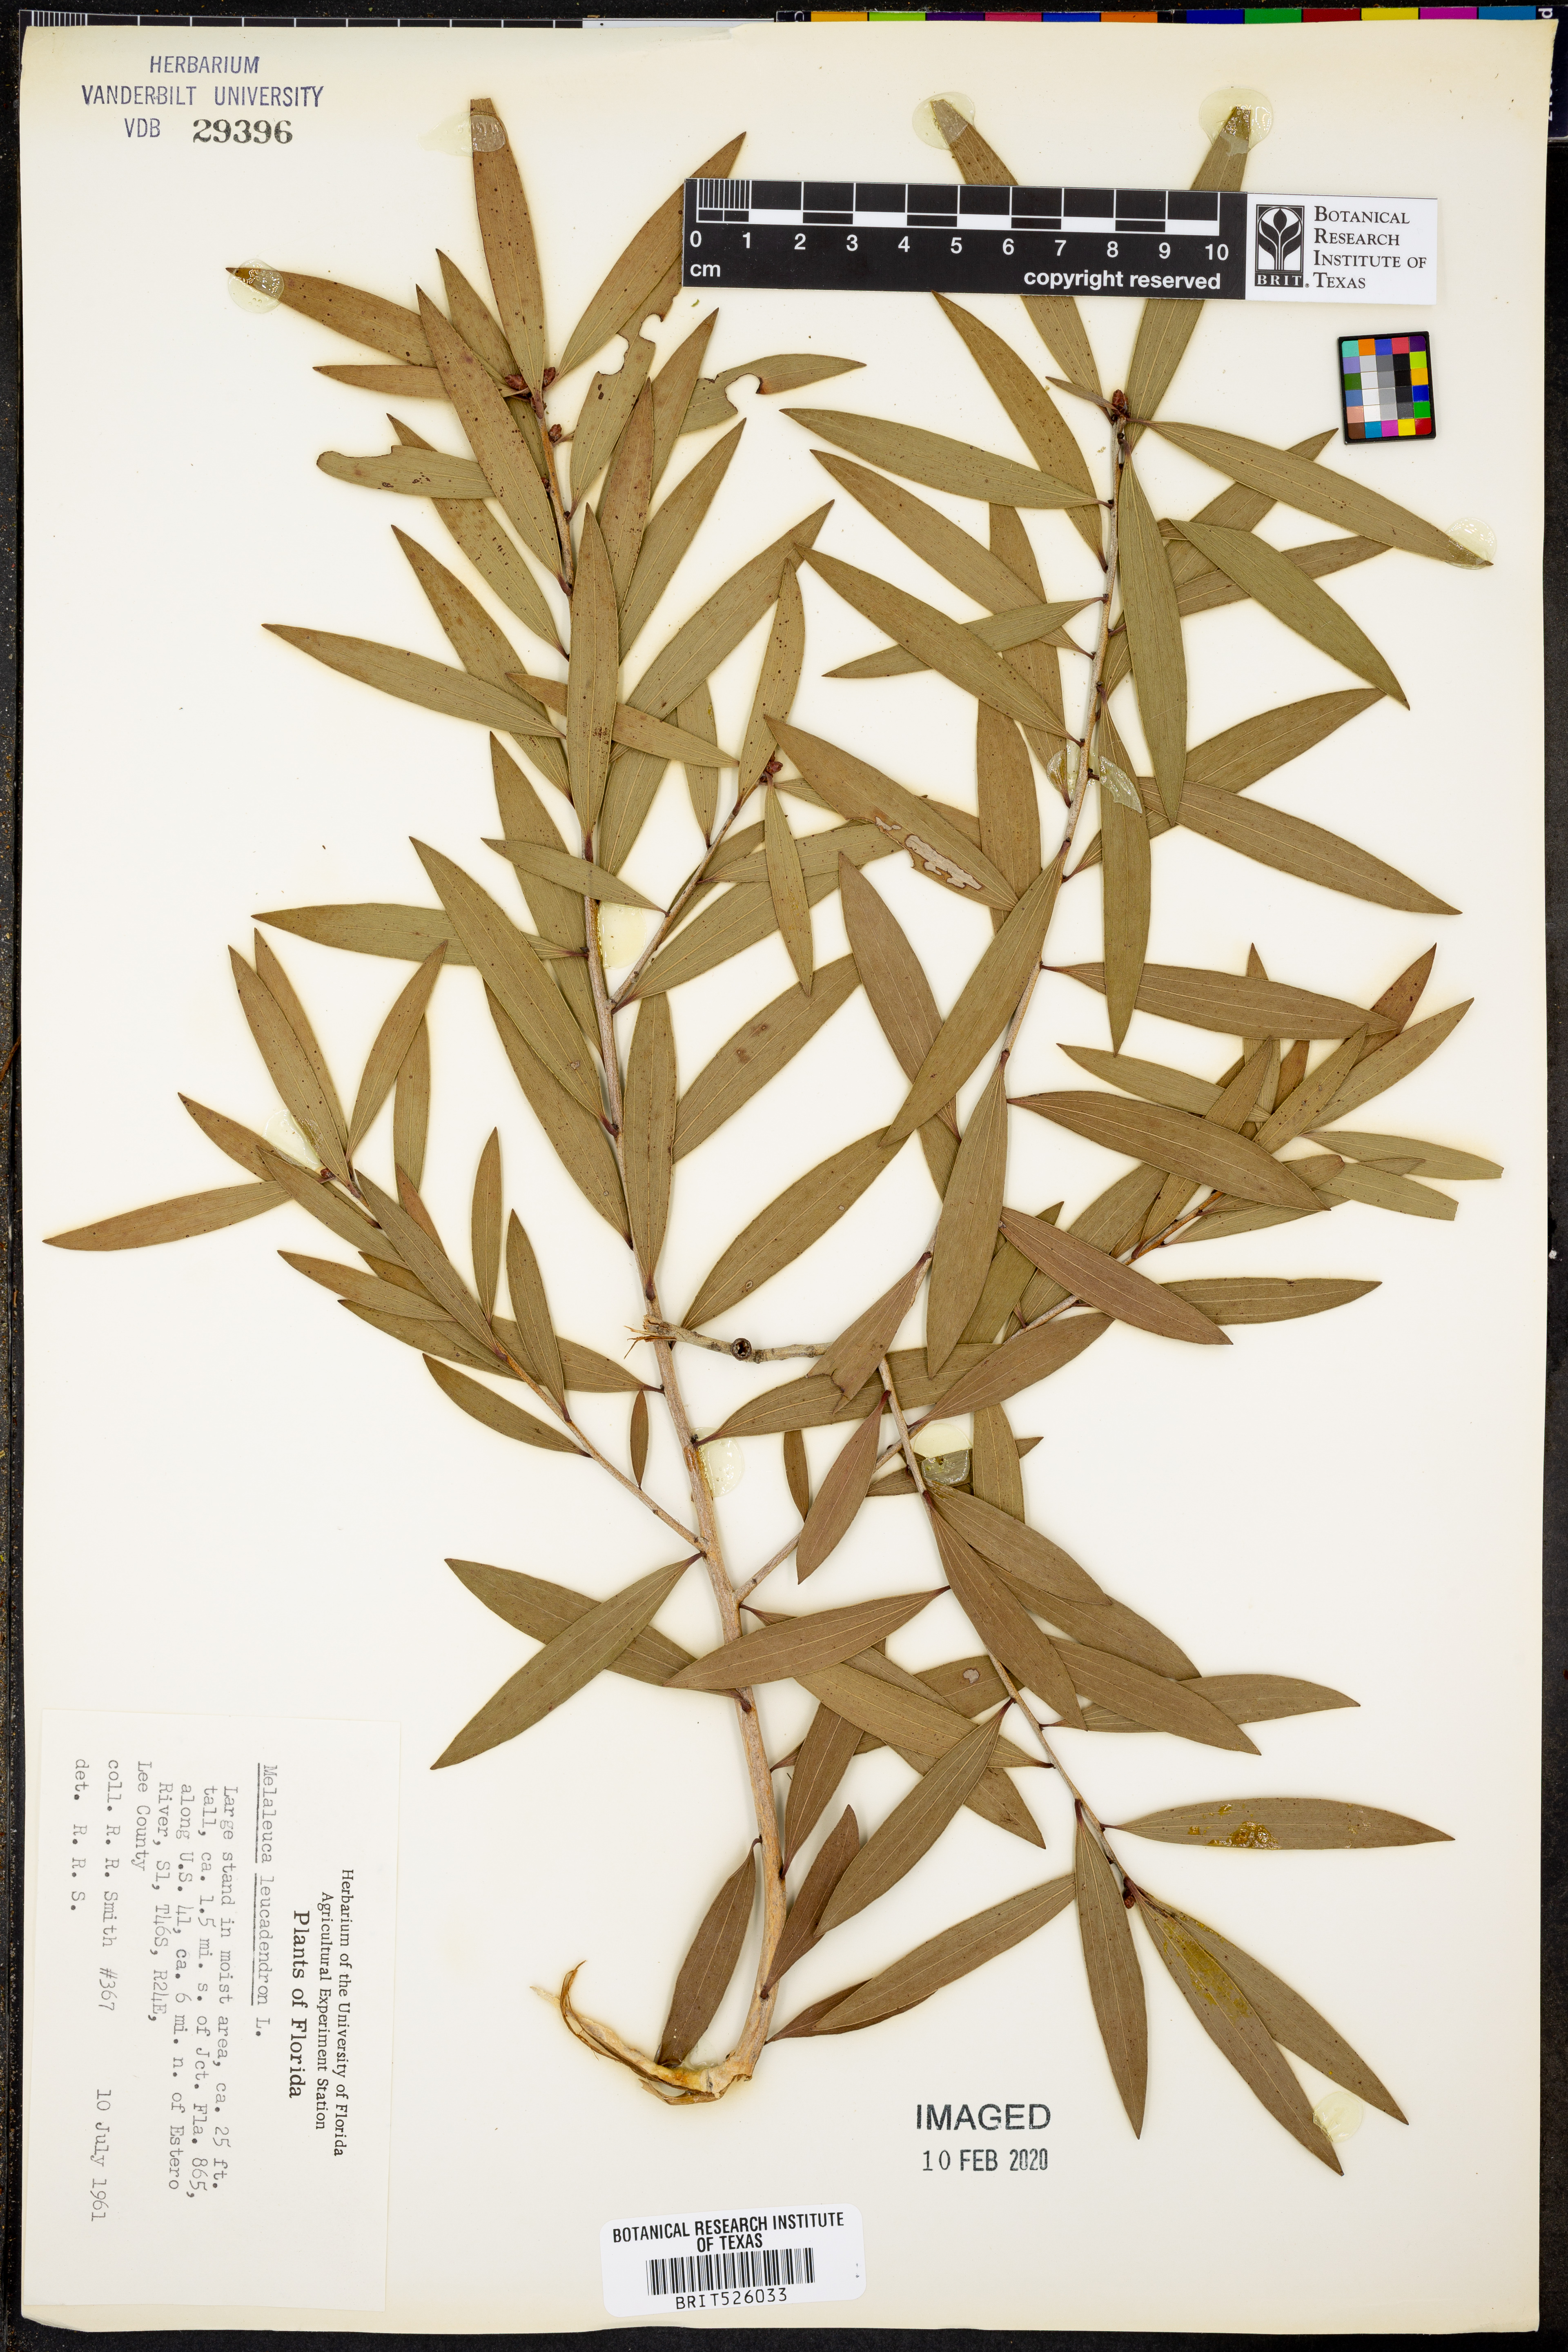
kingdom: Plantae
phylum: Tracheophyta
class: Magnoliopsida
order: Myrtales
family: Myrtaceae
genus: Melaleuca
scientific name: Melaleuca leucadendra
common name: Weeping paperbark
